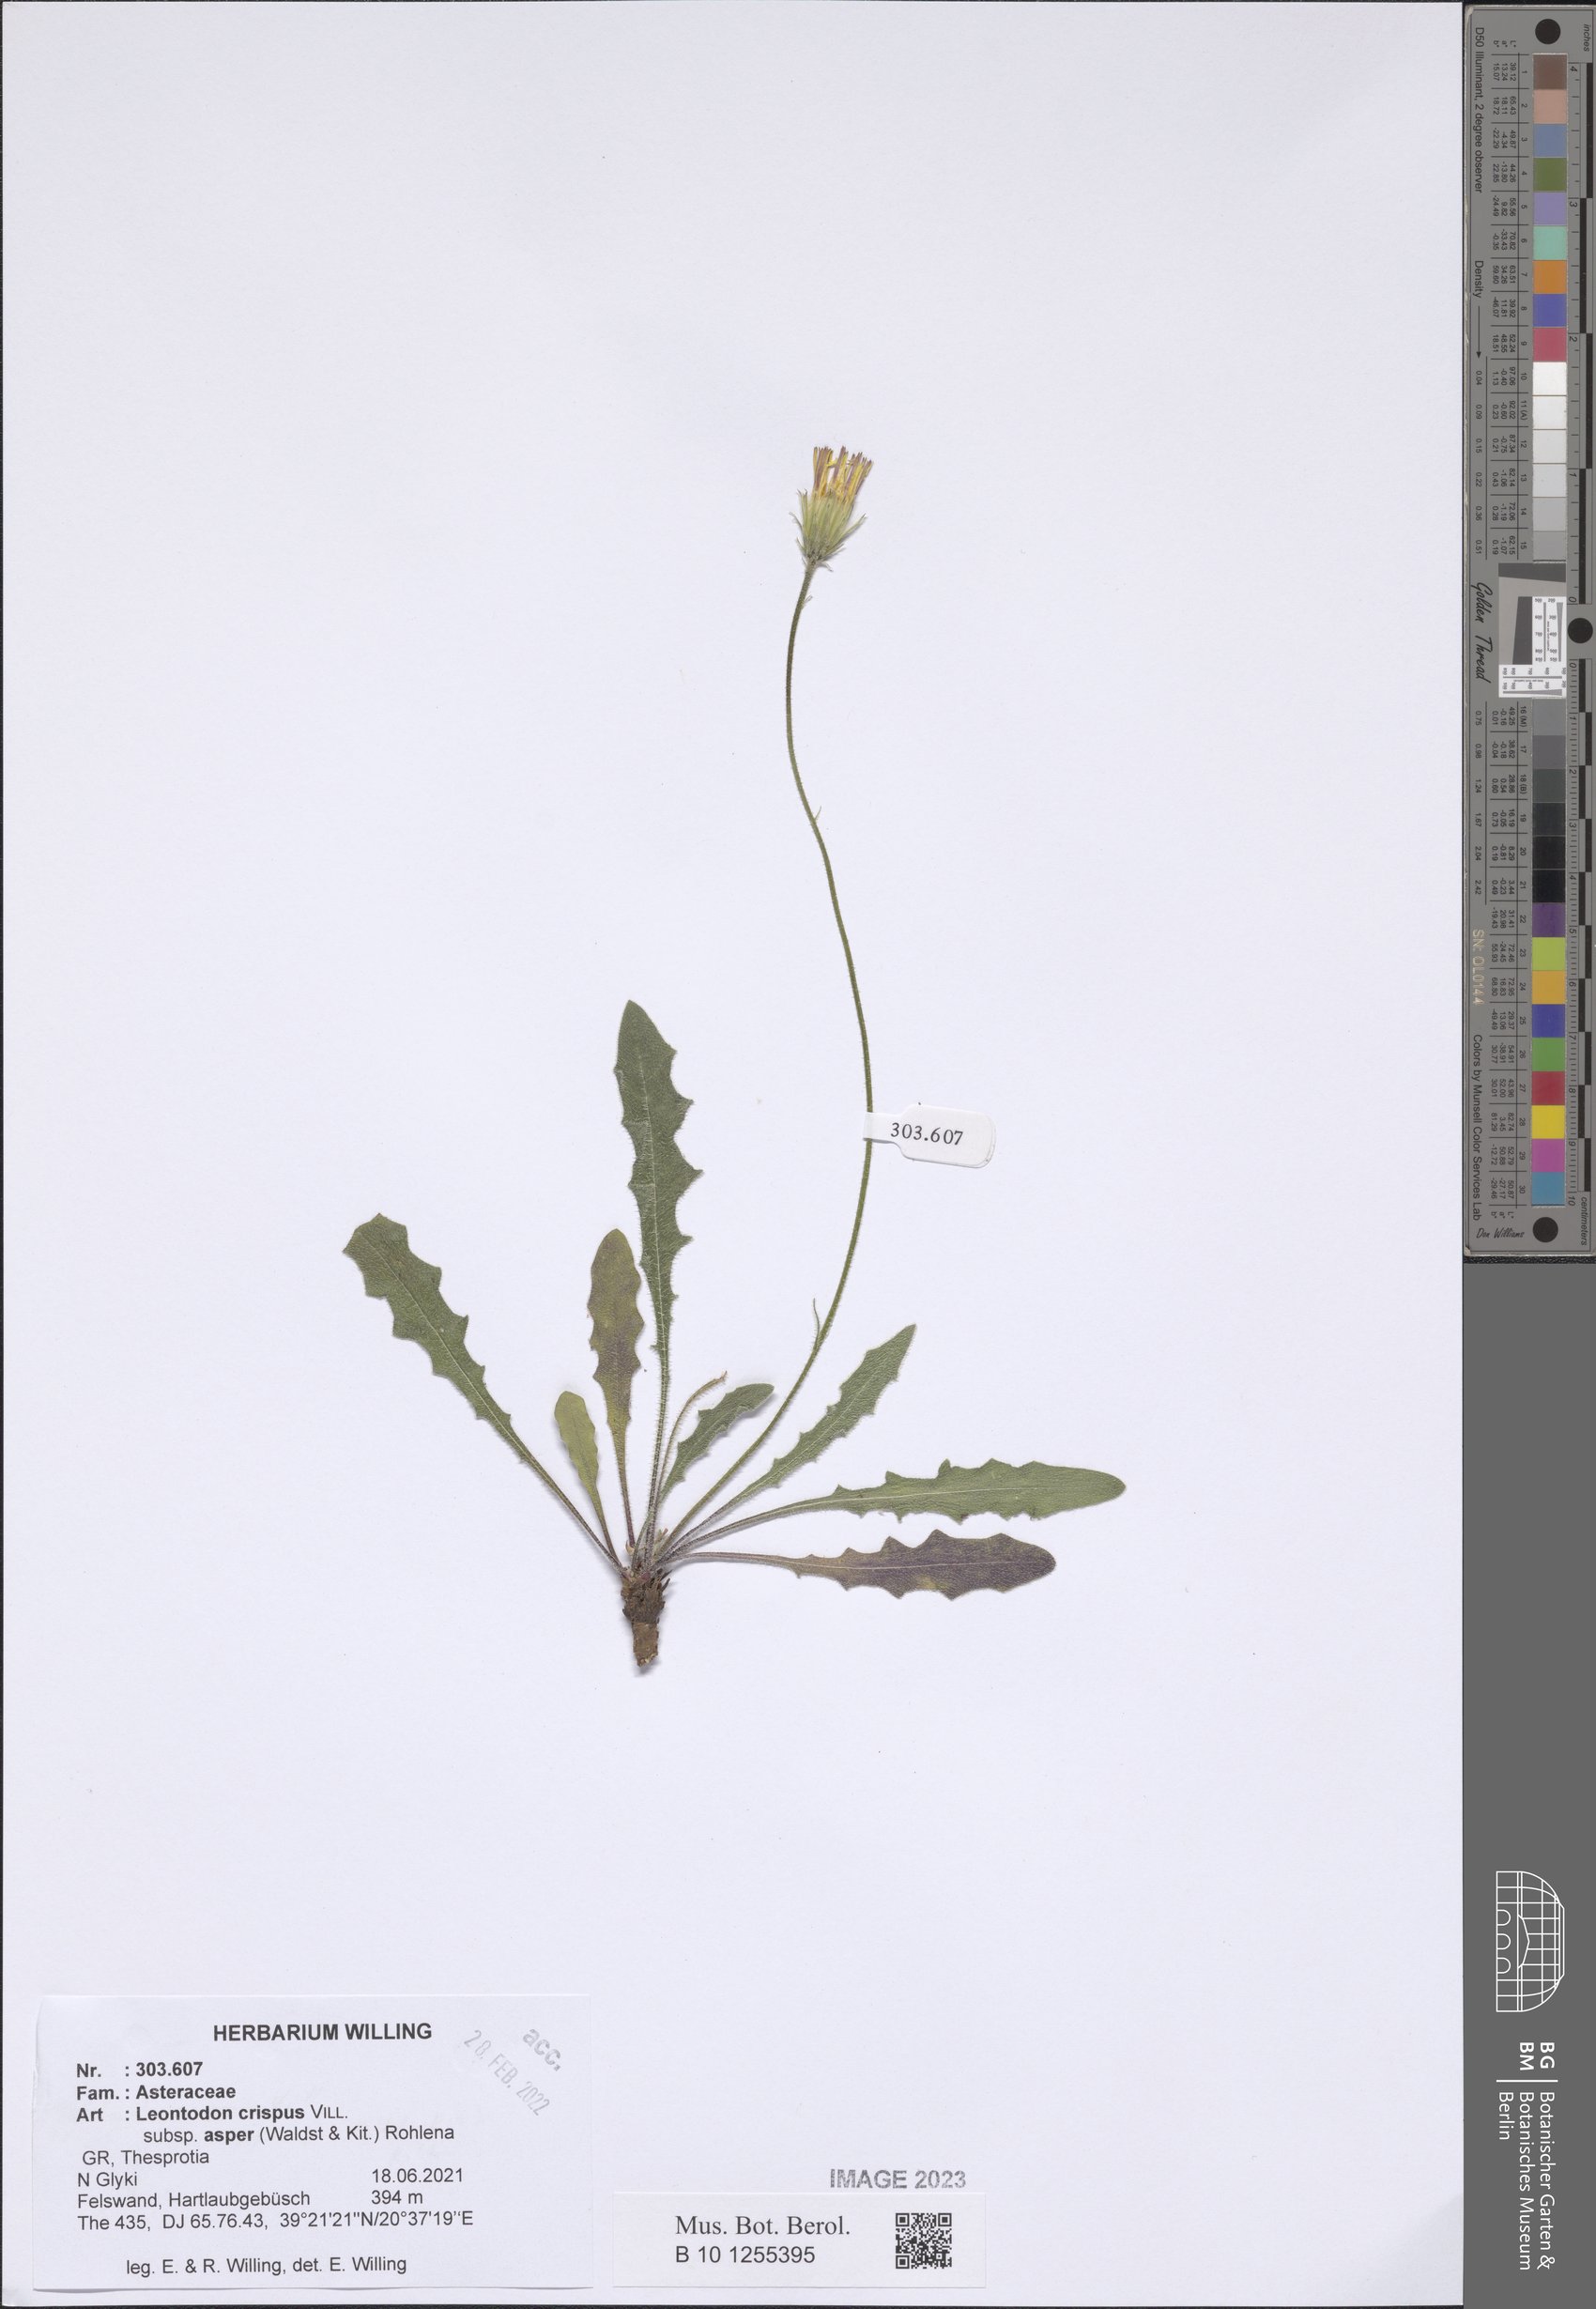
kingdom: Plantae
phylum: Tracheophyta
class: Magnoliopsida
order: Asterales
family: Asteraceae
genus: Leontodon
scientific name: Leontodon biscutellifolius
